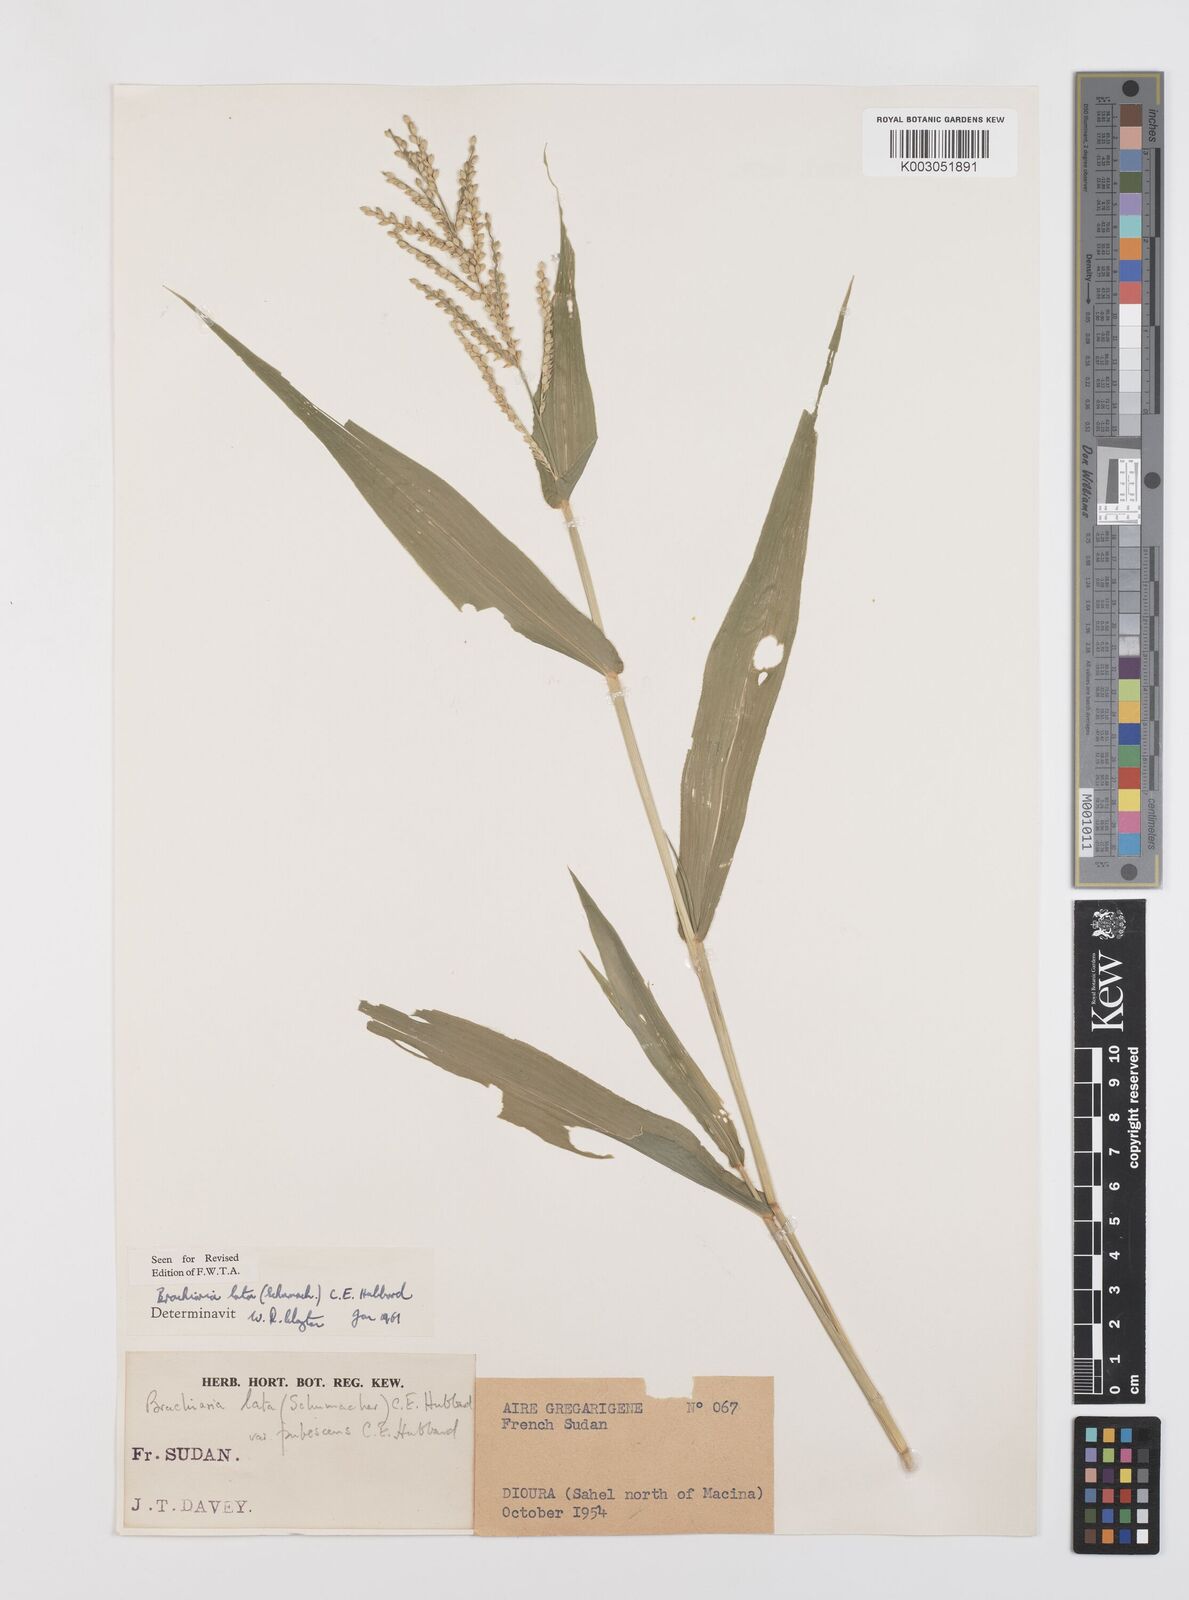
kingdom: Plantae
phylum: Tracheophyta
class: Liliopsida
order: Poales
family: Poaceae
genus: Urochloa
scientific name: Urochloa lata
